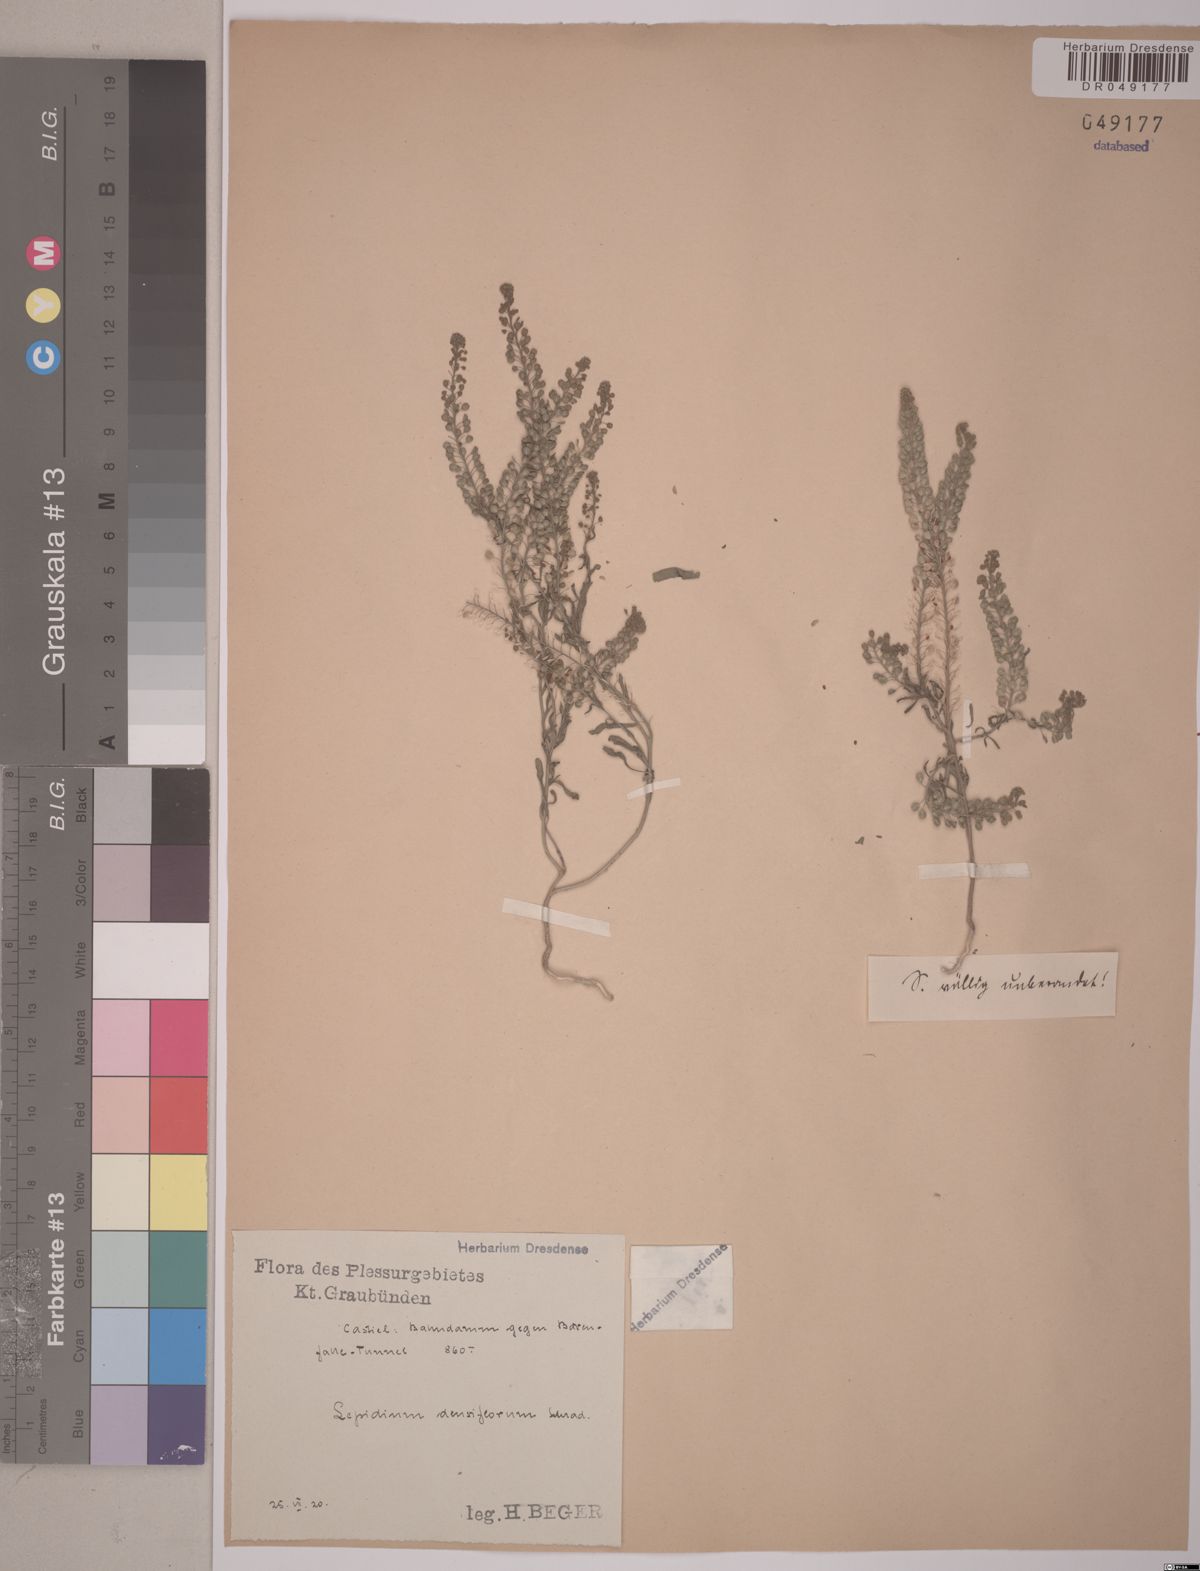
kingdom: Plantae
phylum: Tracheophyta
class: Magnoliopsida
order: Brassicales
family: Brassicaceae
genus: Lepidium
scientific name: Lepidium densiflorum
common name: Miner's pepperwort
